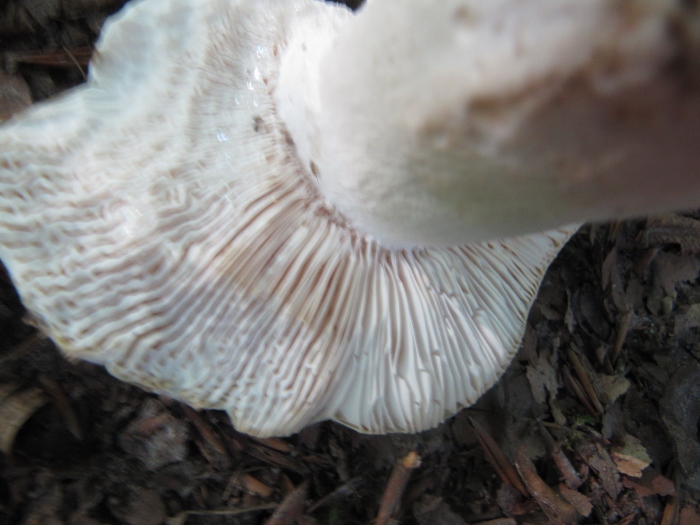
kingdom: Fungi
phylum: Basidiomycota
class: Agaricomycetes
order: Russulales
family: Russulaceae
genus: Russula
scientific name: Russula virescens
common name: spanskgrøn skørhat
